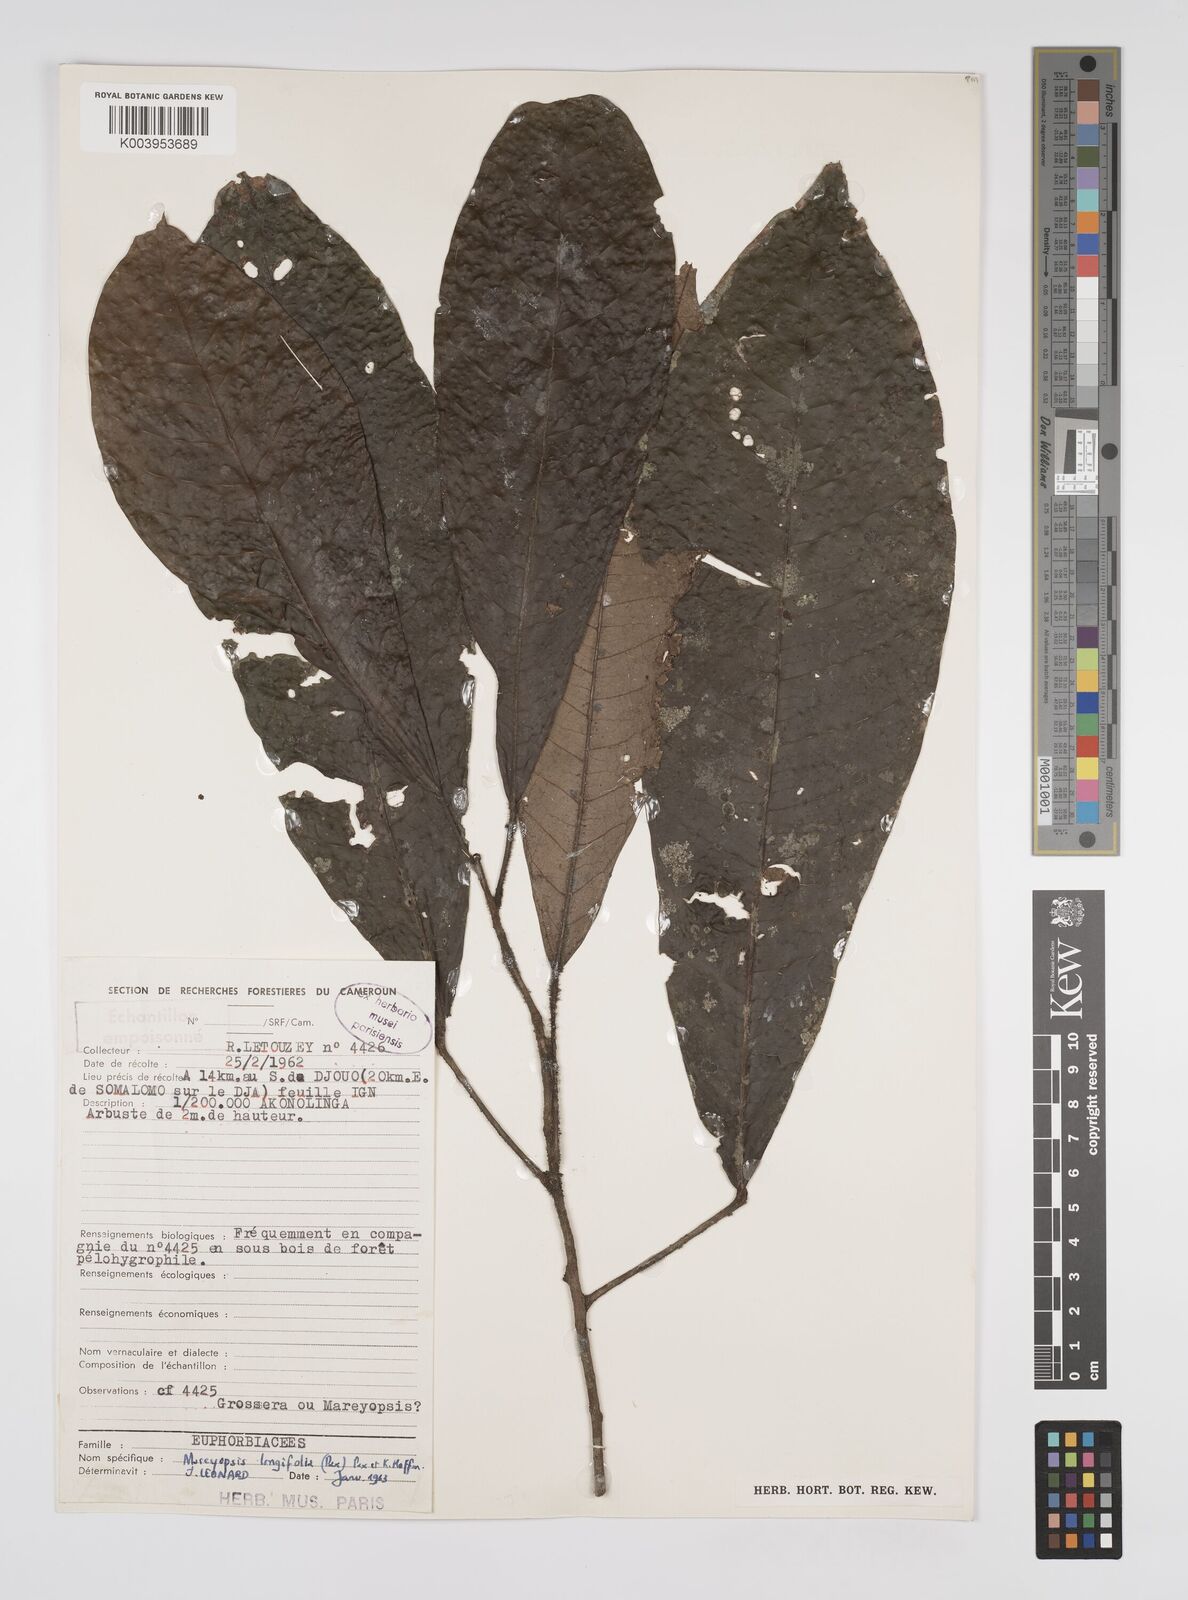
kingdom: Plantae
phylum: Tracheophyta
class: Magnoliopsida
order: Malpighiales
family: Euphorbiaceae
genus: Mareyopsis
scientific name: Mareyopsis longifolia
